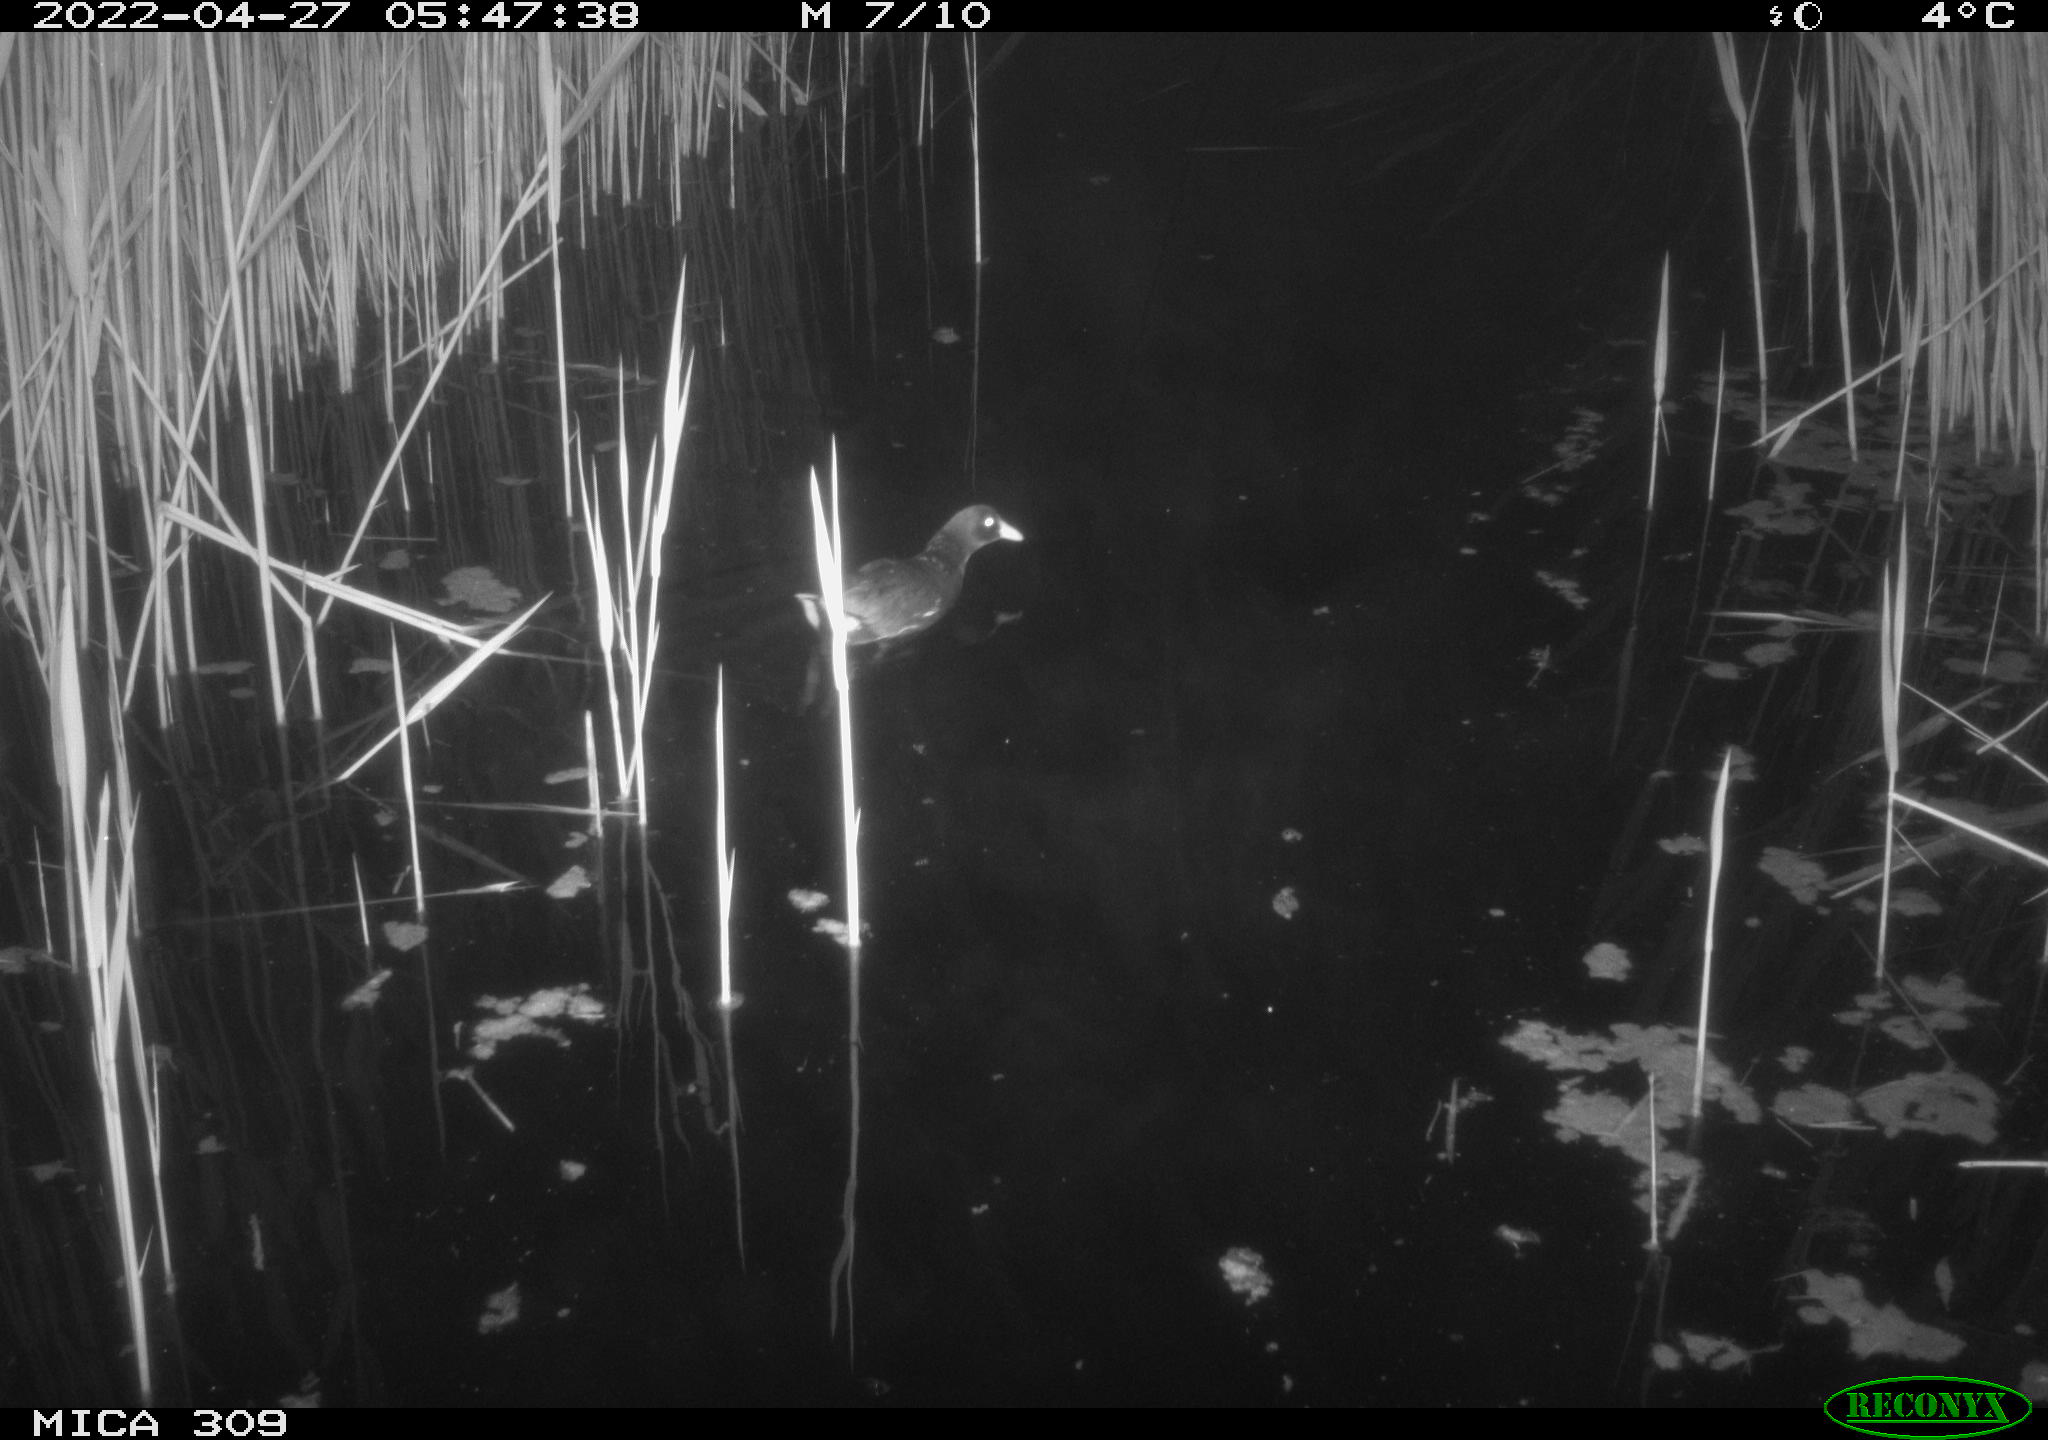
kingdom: Animalia
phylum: Chordata
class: Aves
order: Gruiformes
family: Rallidae
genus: Gallinula
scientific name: Gallinula chloropus
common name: Common moorhen
